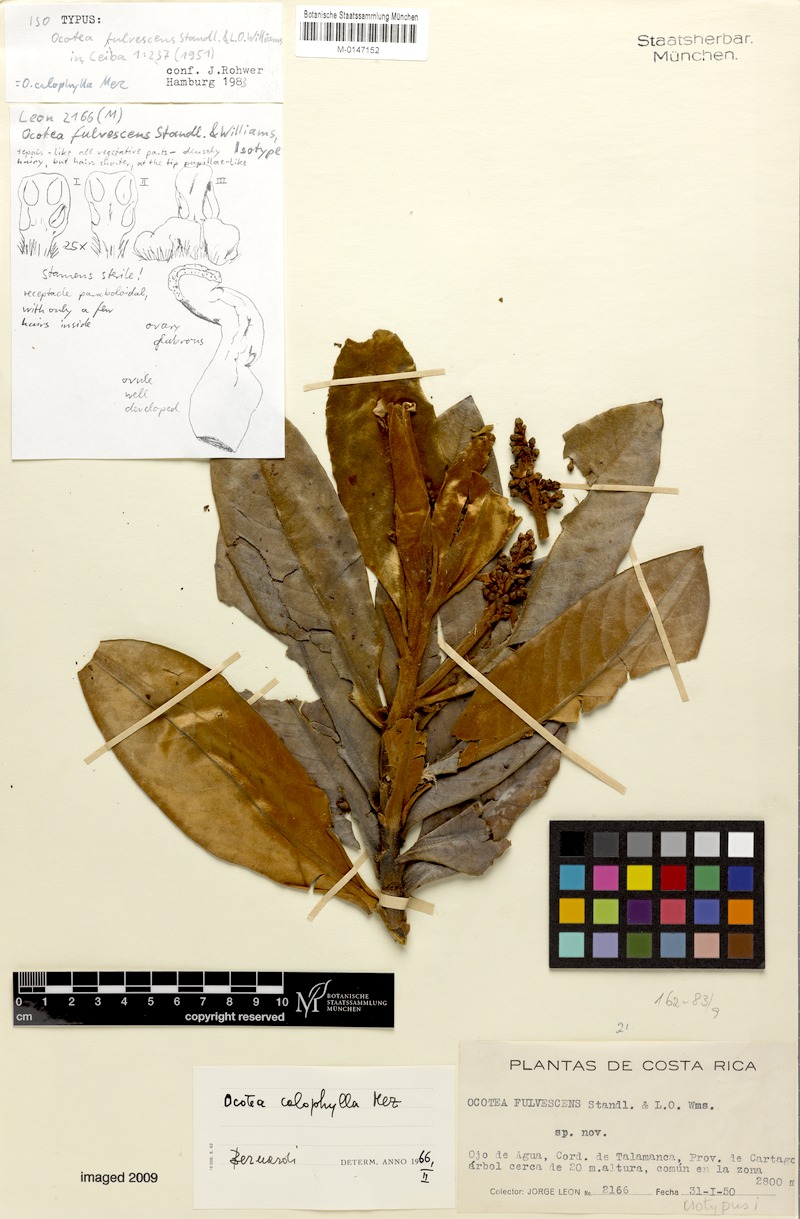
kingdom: Plantae
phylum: Tracheophyta
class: Magnoliopsida
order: Laurales
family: Lauraceae
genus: Andea
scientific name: Andea fulvescens
